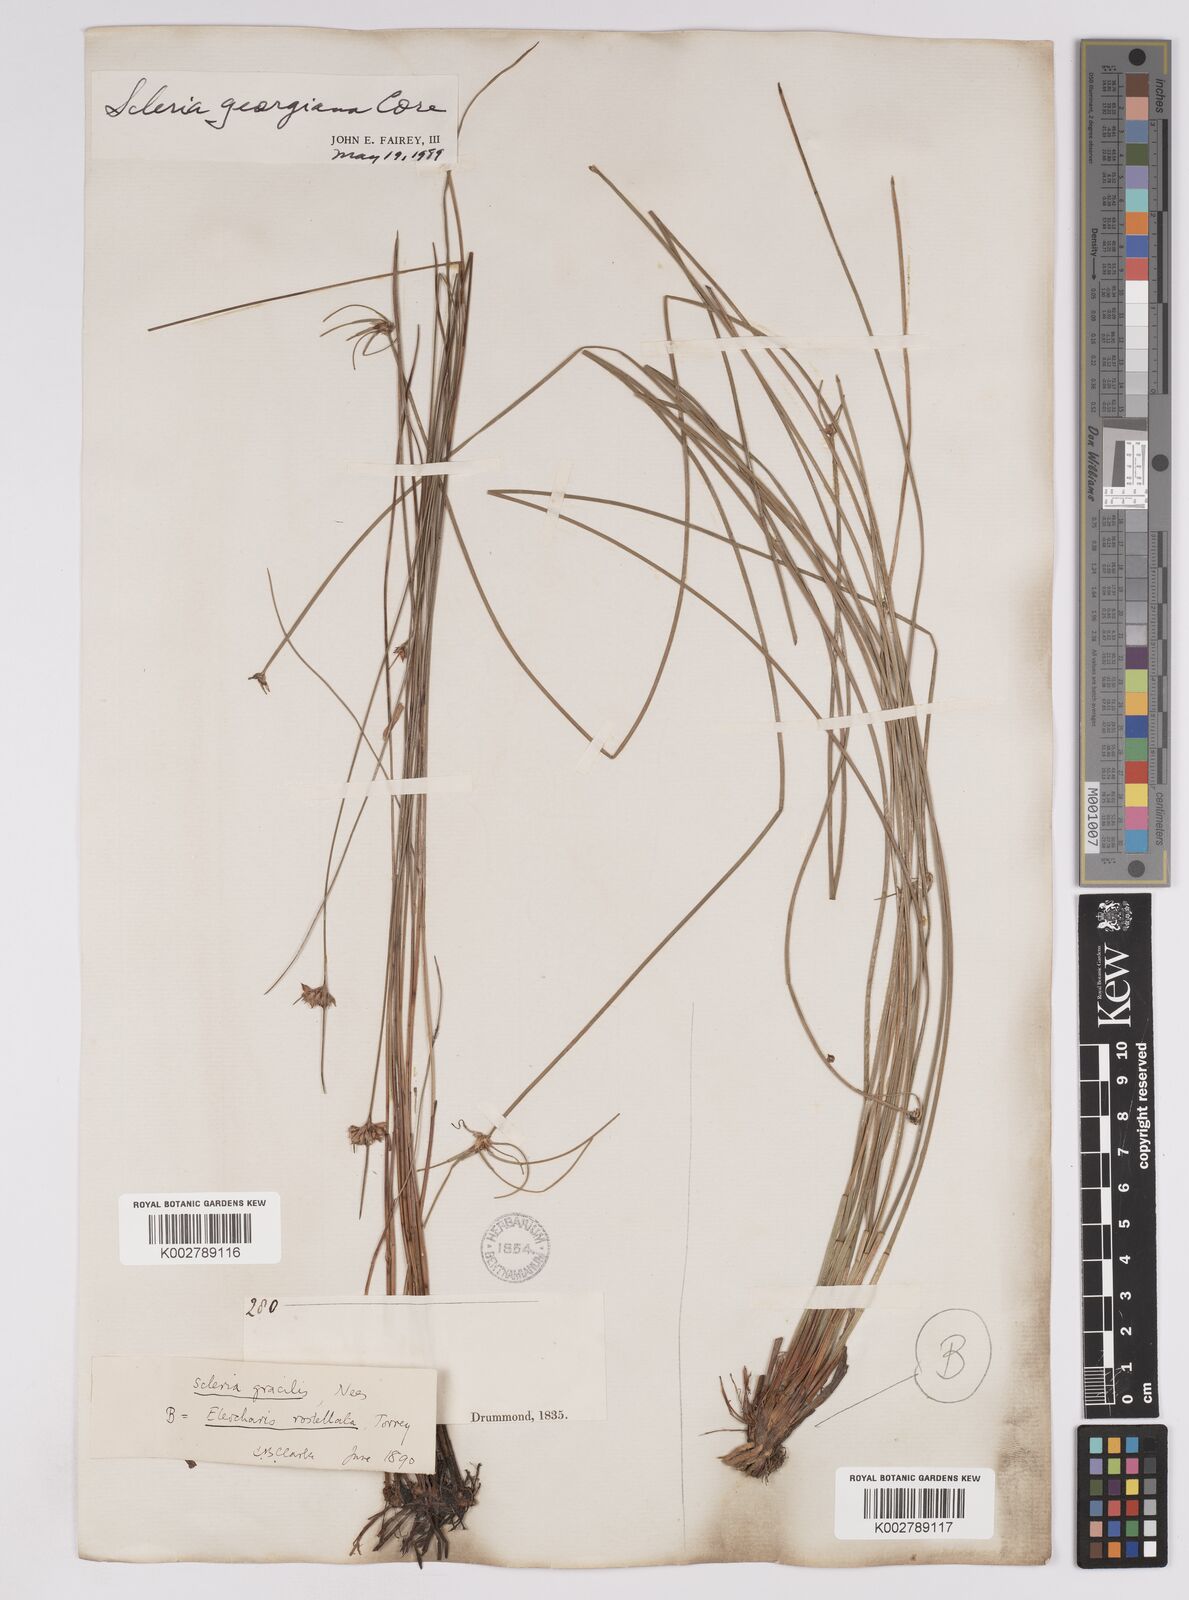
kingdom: Plantae
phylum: Tracheophyta
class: Liliopsida
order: Poales
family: Cyperaceae
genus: Scleria
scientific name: Scleria georgiana
